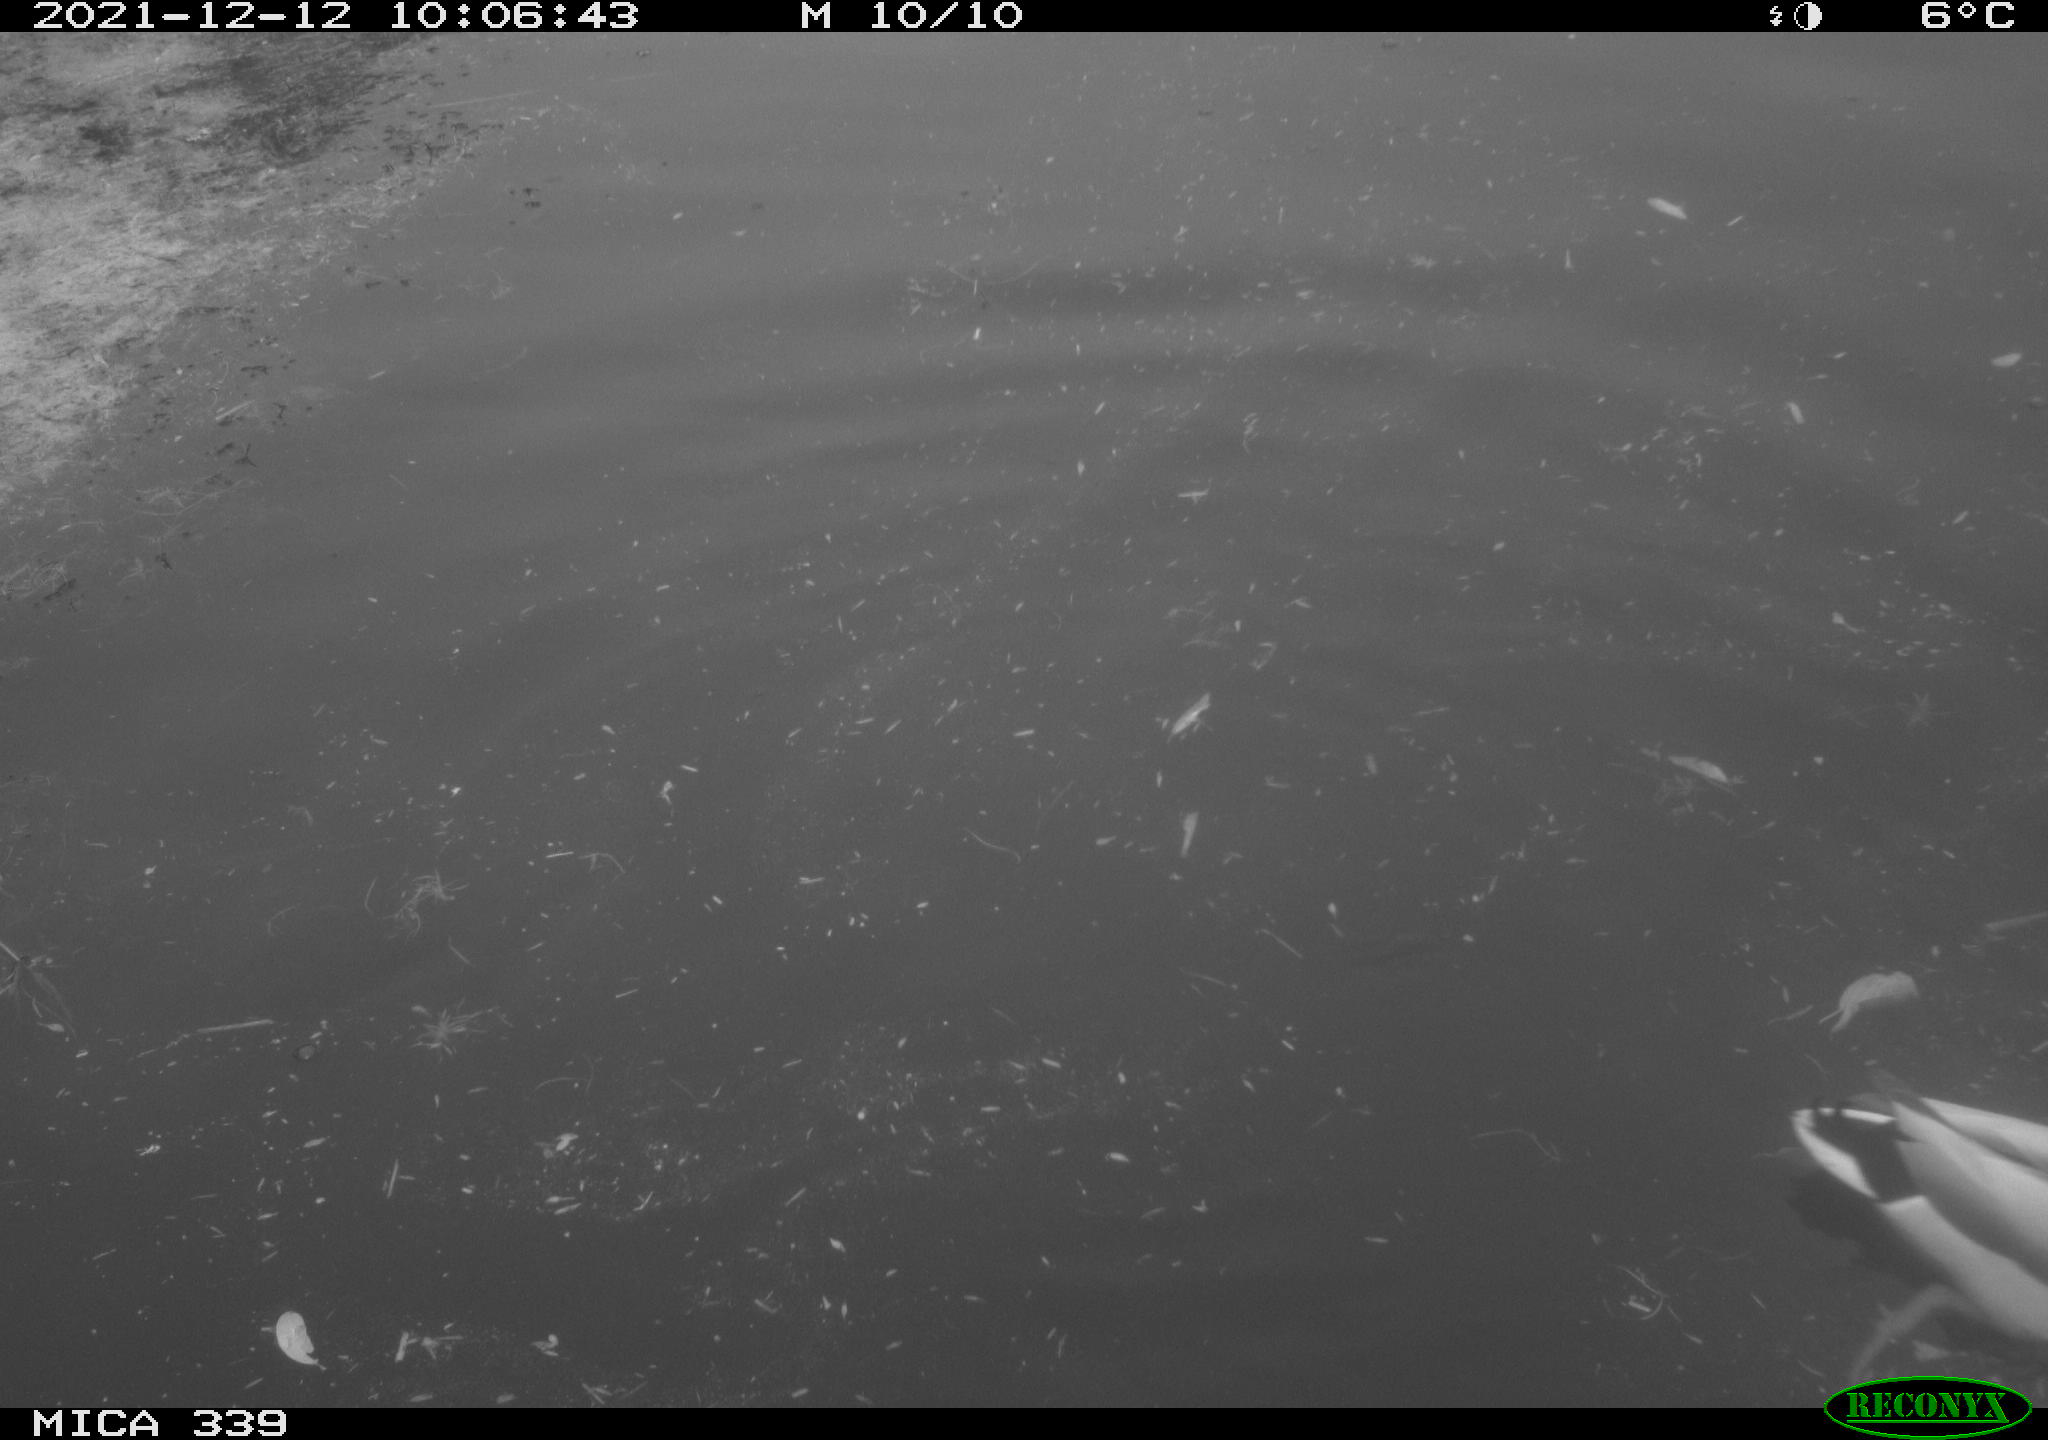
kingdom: Animalia
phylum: Chordata
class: Aves
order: Anseriformes
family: Anatidae
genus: Anas
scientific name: Anas platyrhynchos
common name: Mallard
